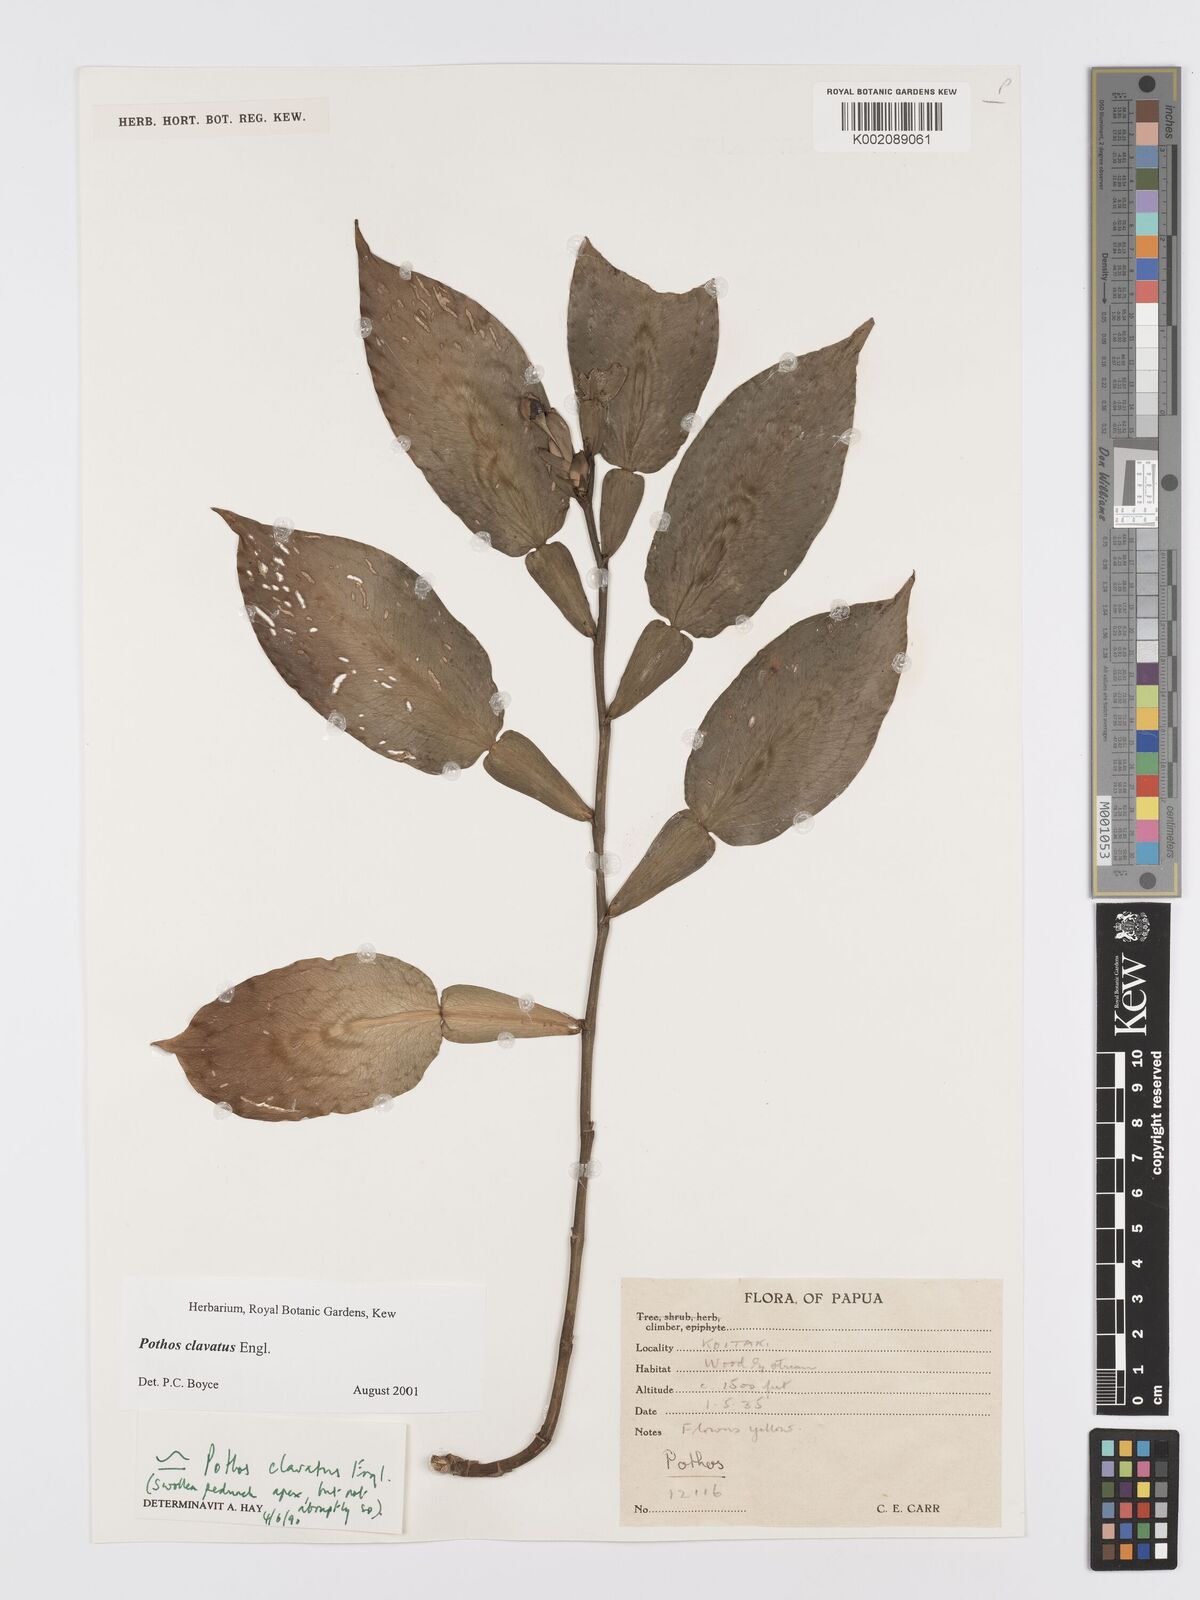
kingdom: Plantae
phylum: Tracheophyta
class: Liliopsida
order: Alismatales
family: Araceae
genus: Pothos
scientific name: Pothos clavatus
